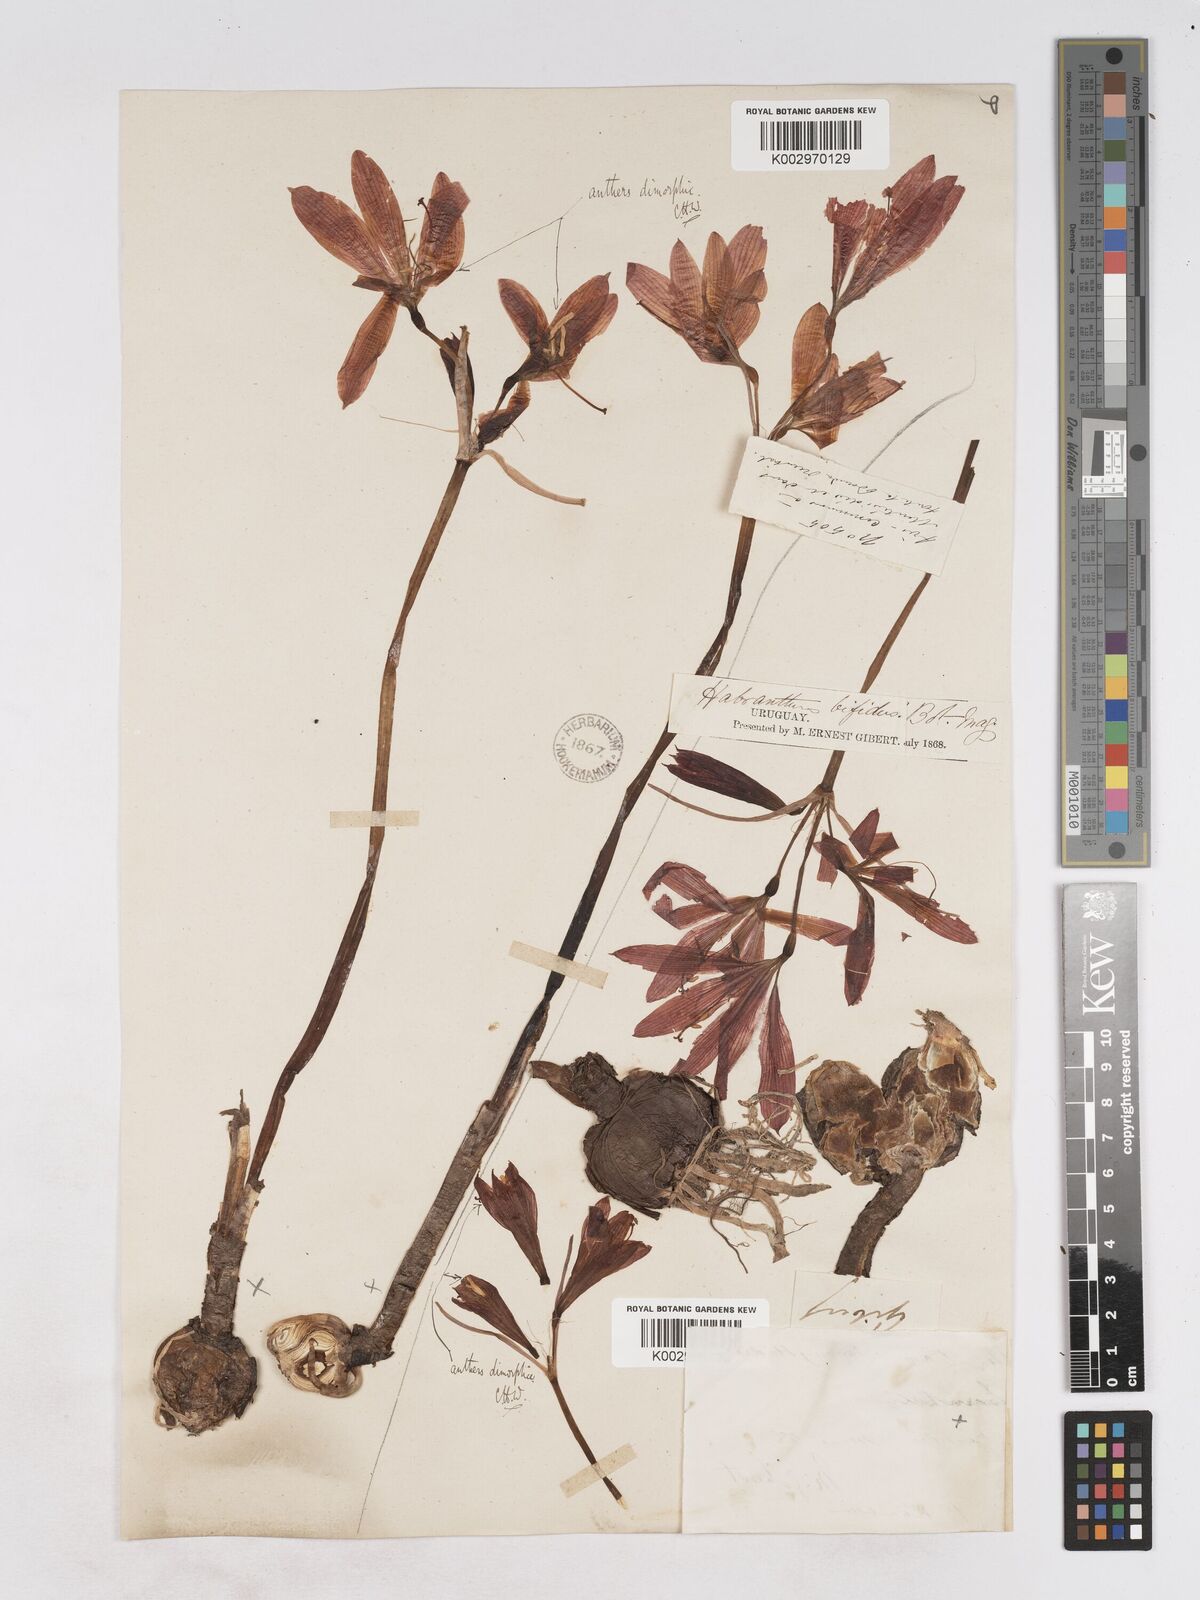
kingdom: Plantae
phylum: Tracheophyta
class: Liliopsida
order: Asparagales
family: Amaryllidaceae
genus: Zephyranthes
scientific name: Zephyranthes bifida
